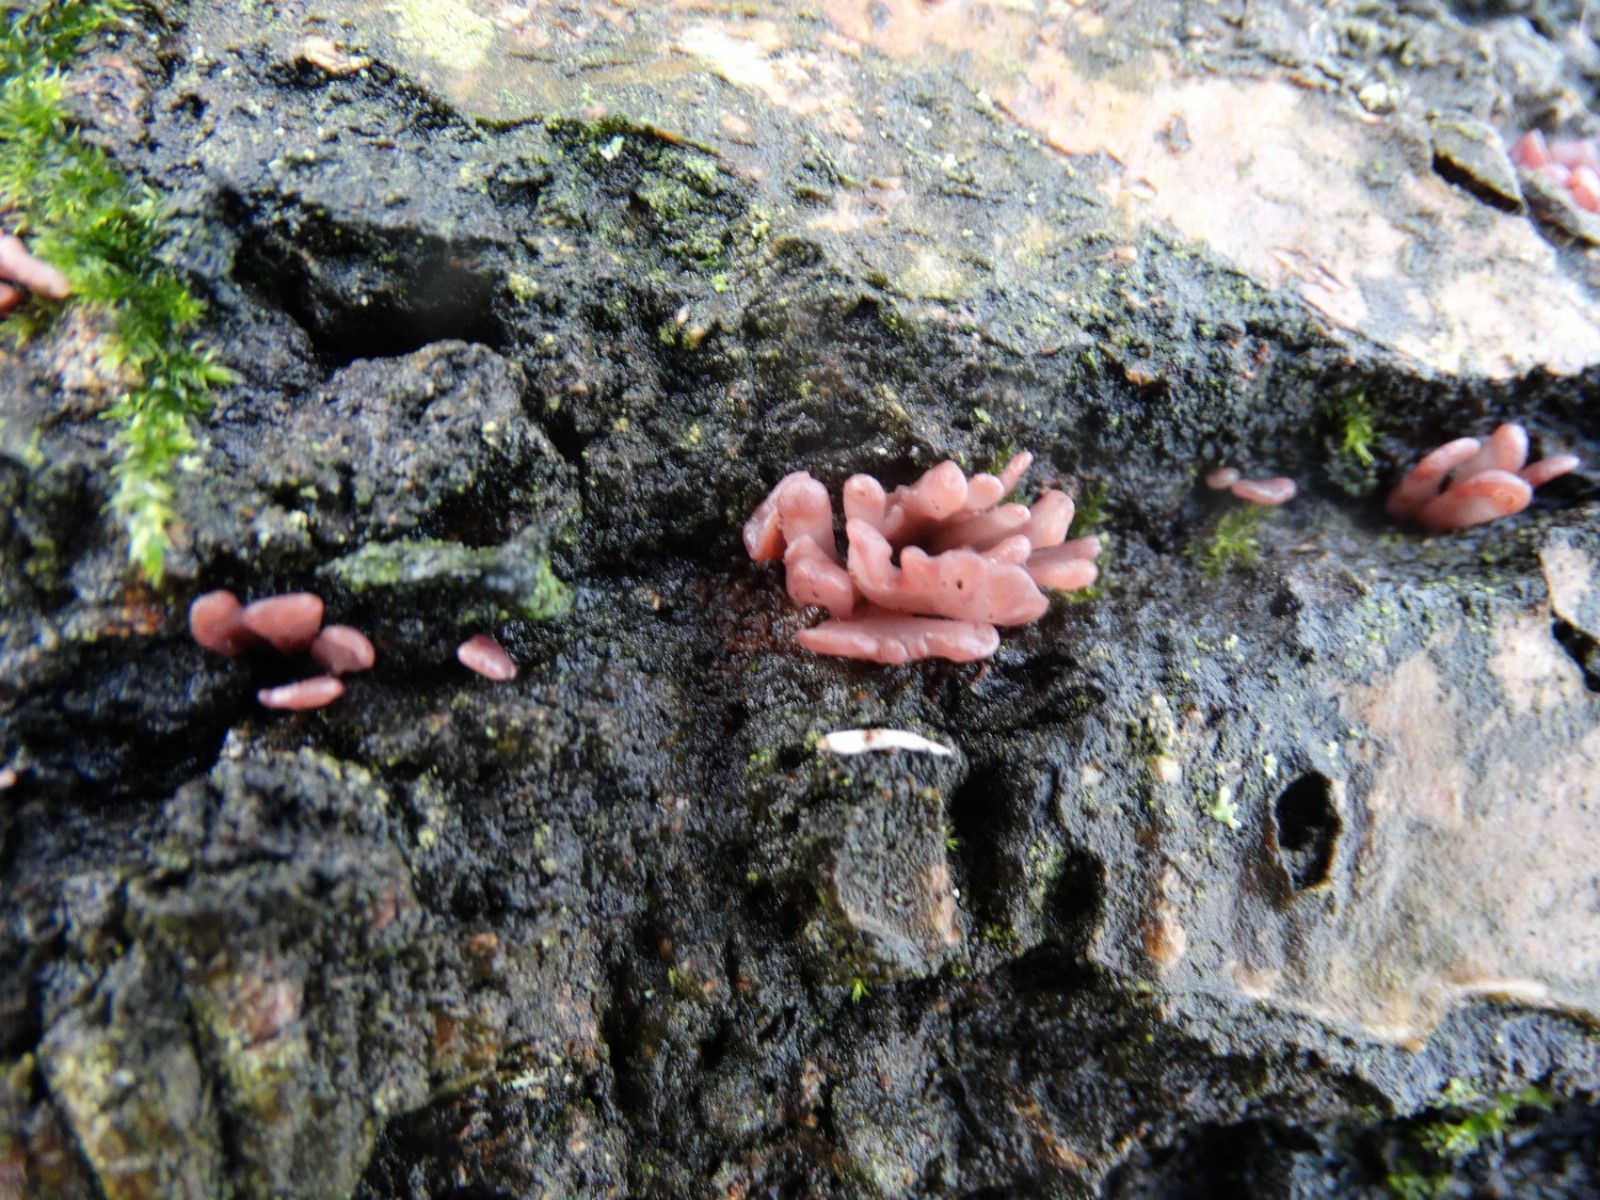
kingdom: Fungi
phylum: Ascomycota
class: Leotiomycetes
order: Helotiales
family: Gelatinodiscaceae
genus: Ascocoryne
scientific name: Ascocoryne sarcoides
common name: rødlilla sejskive
